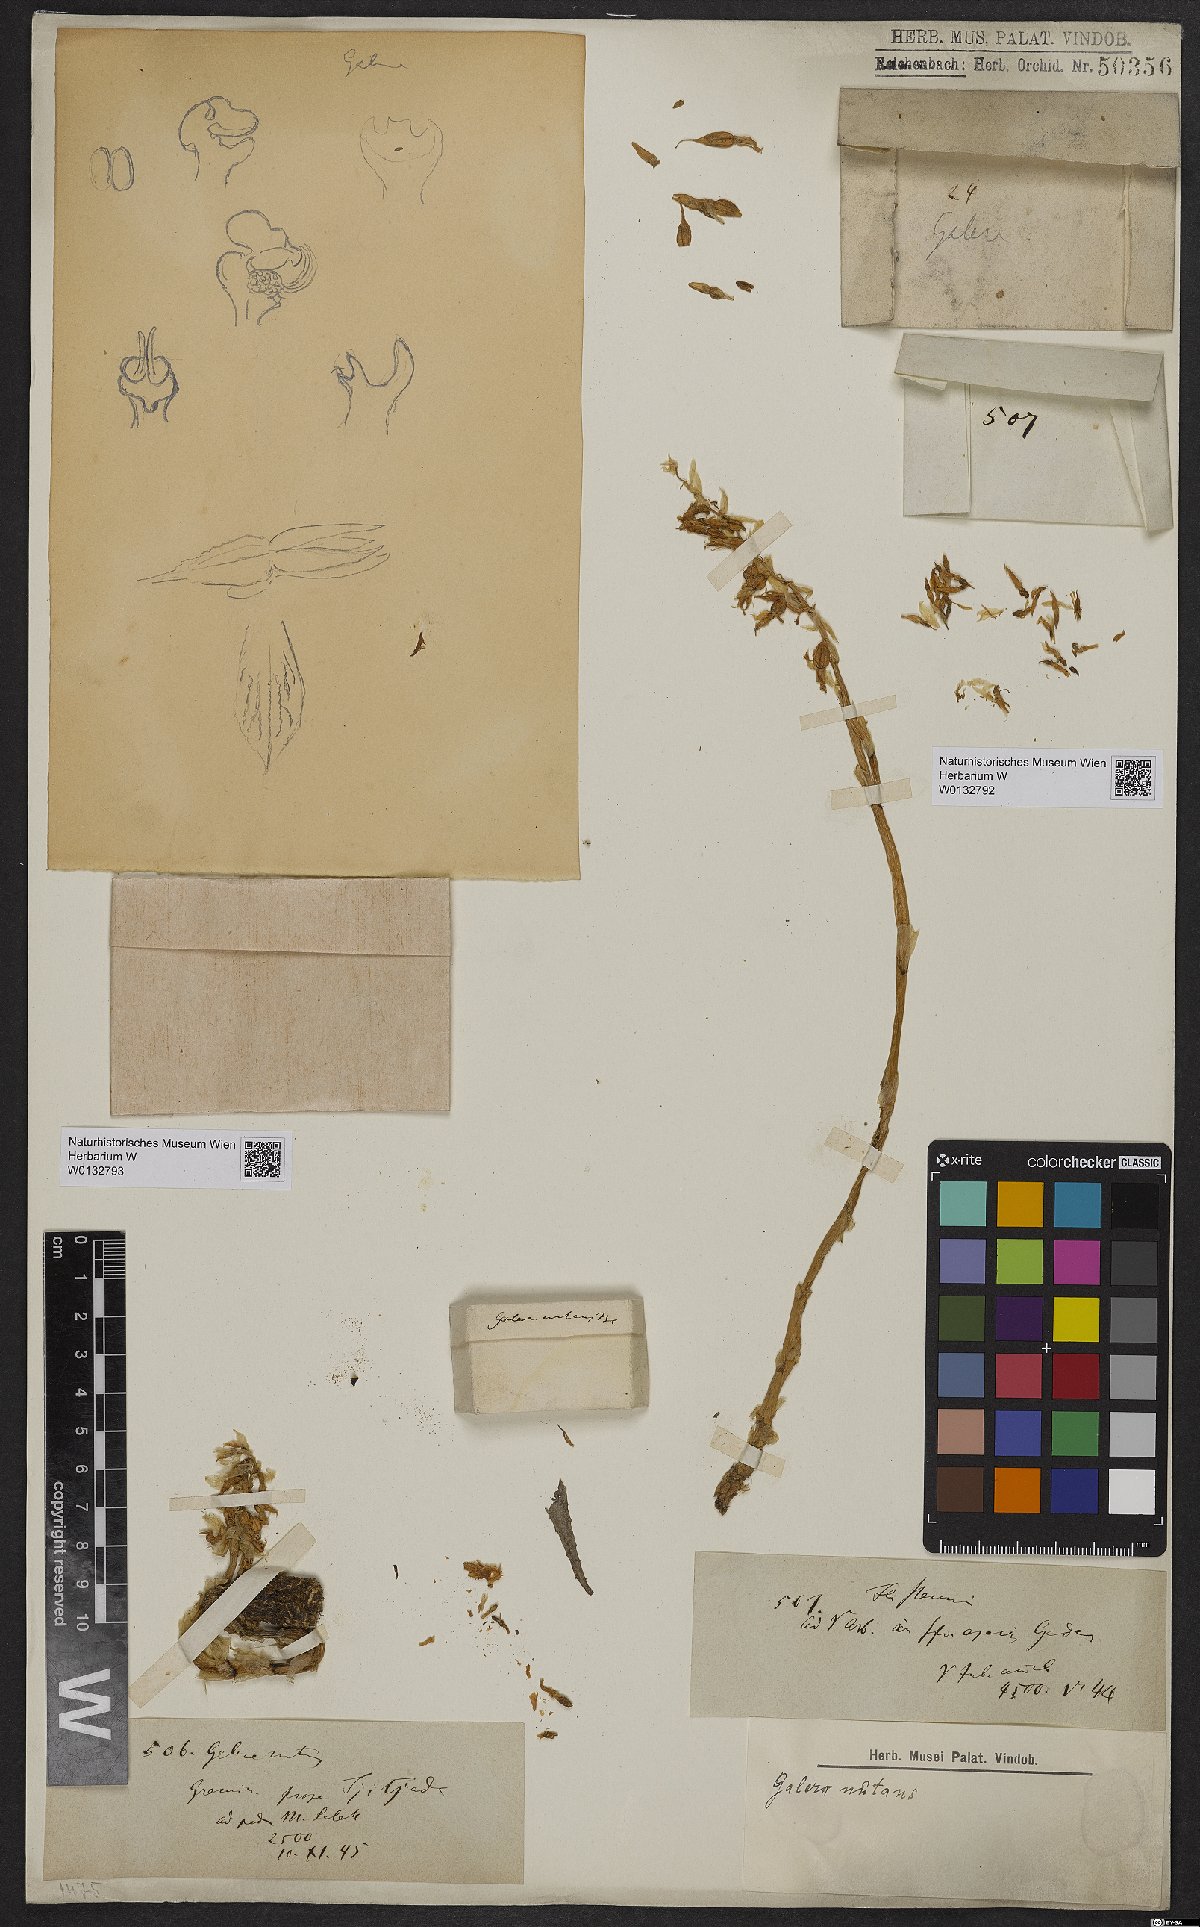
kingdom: Plantae
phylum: Tracheophyta
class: Liliopsida
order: Asparagales
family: Orchidaceae
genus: Epipogium
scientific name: Epipogium roseum
